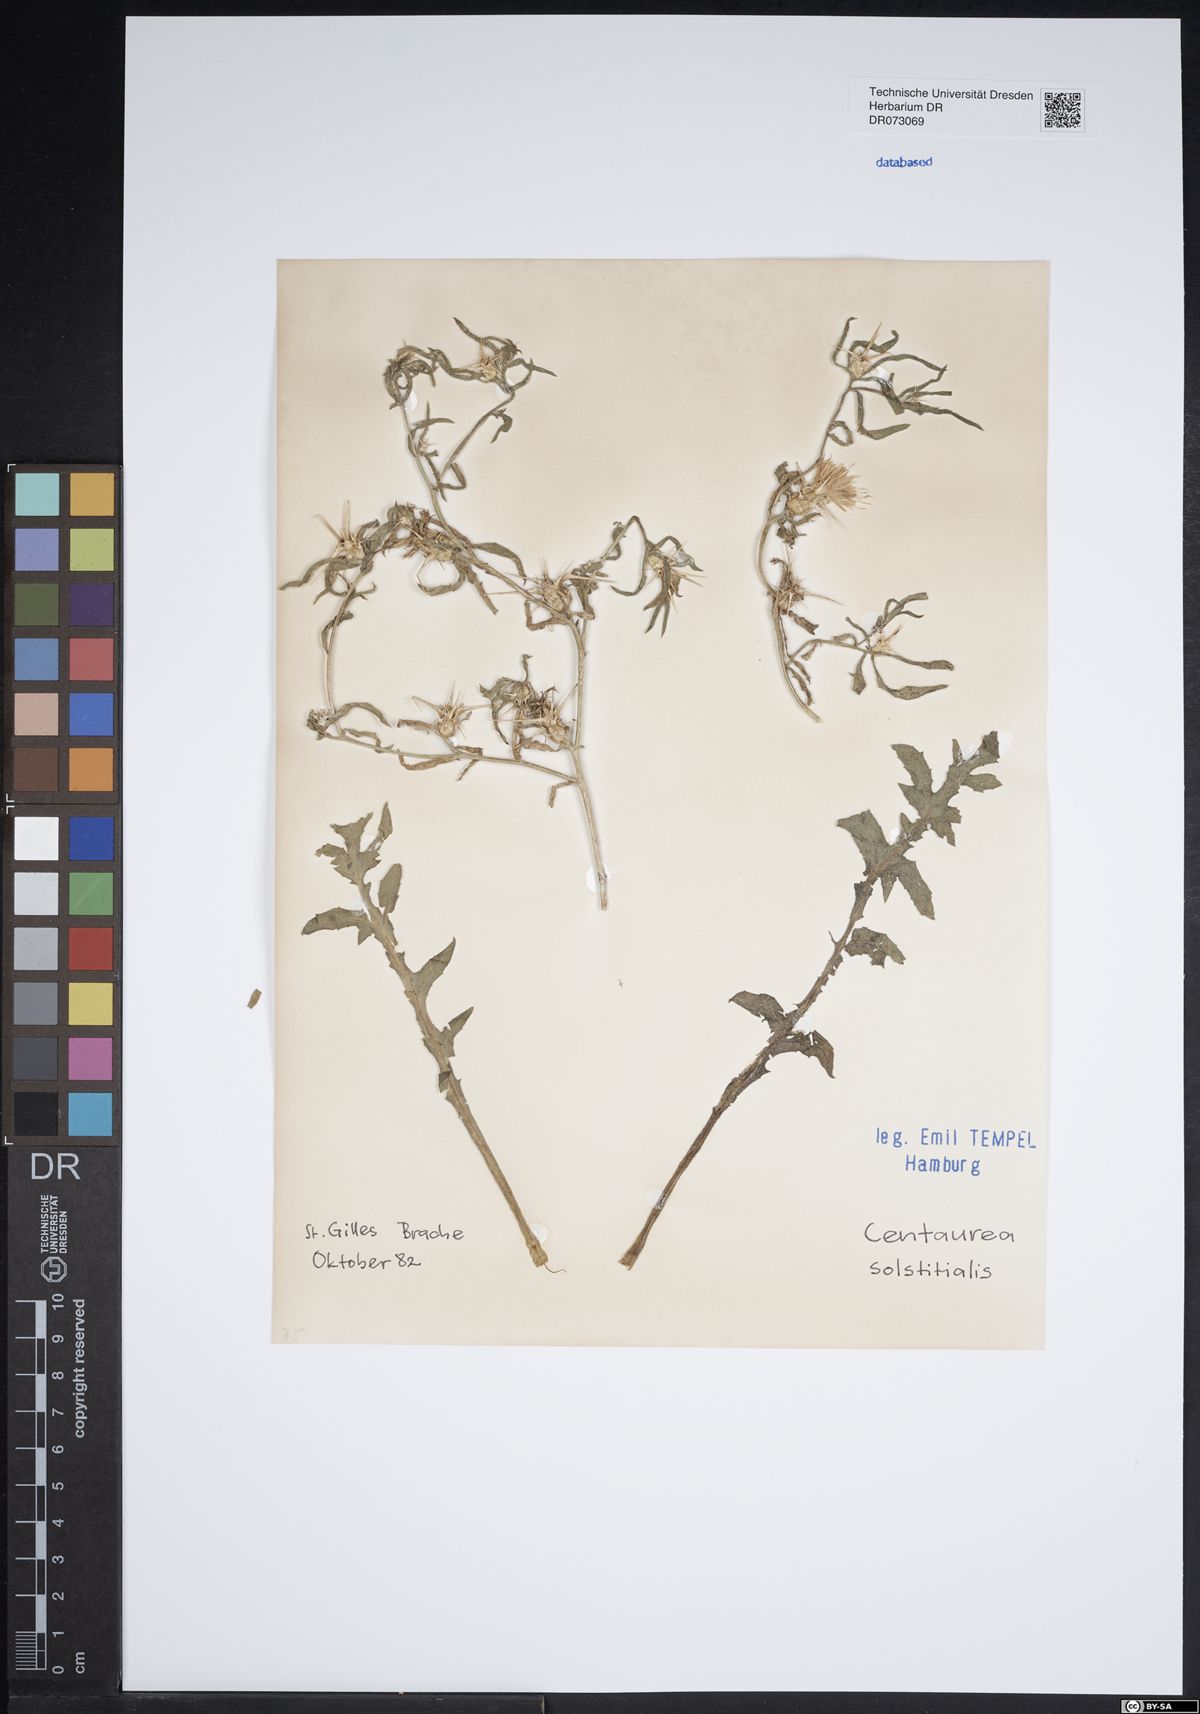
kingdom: Plantae
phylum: Tracheophyta
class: Magnoliopsida
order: Asterales
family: Asteraceae
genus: Centaurea
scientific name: Centaurea solstitialis
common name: Yellow star-thistle
